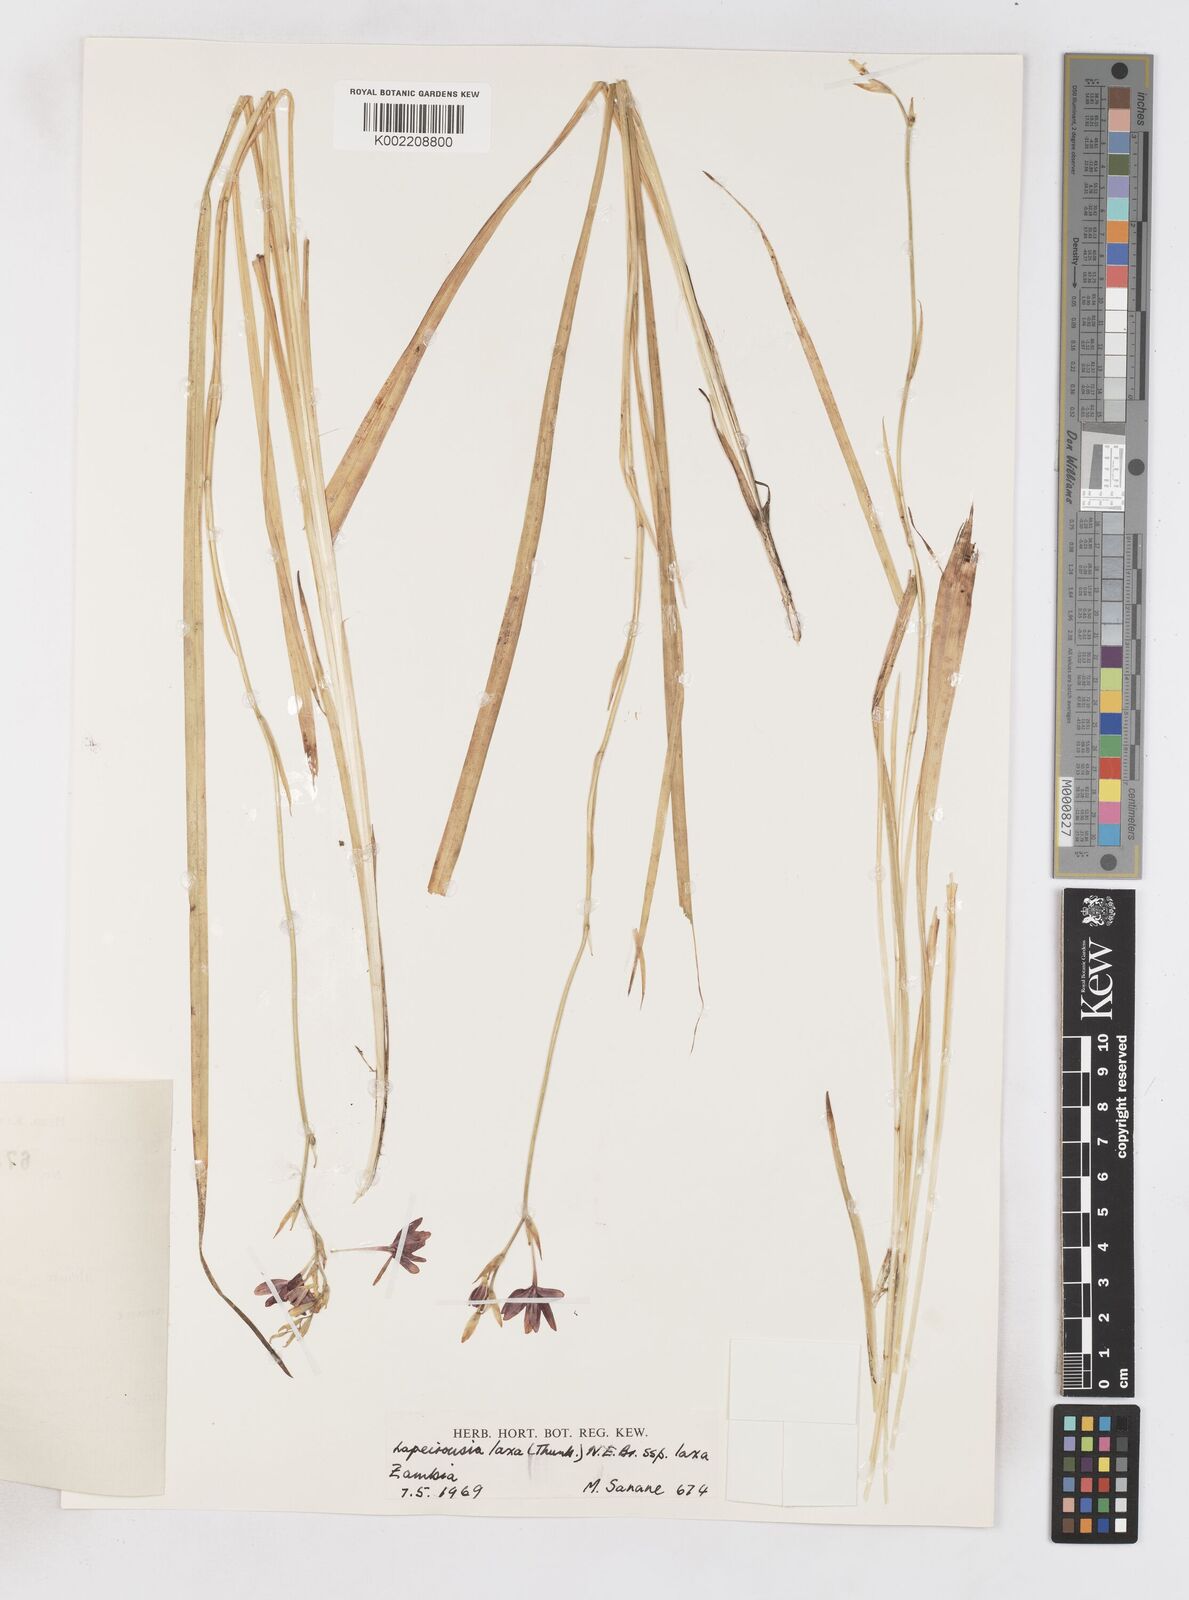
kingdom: Plantae
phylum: Tracheophyta
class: Liliopsida
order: Asparagales
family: Iridaceae
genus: Freesia
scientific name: Freesia laxa
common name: False freesia
